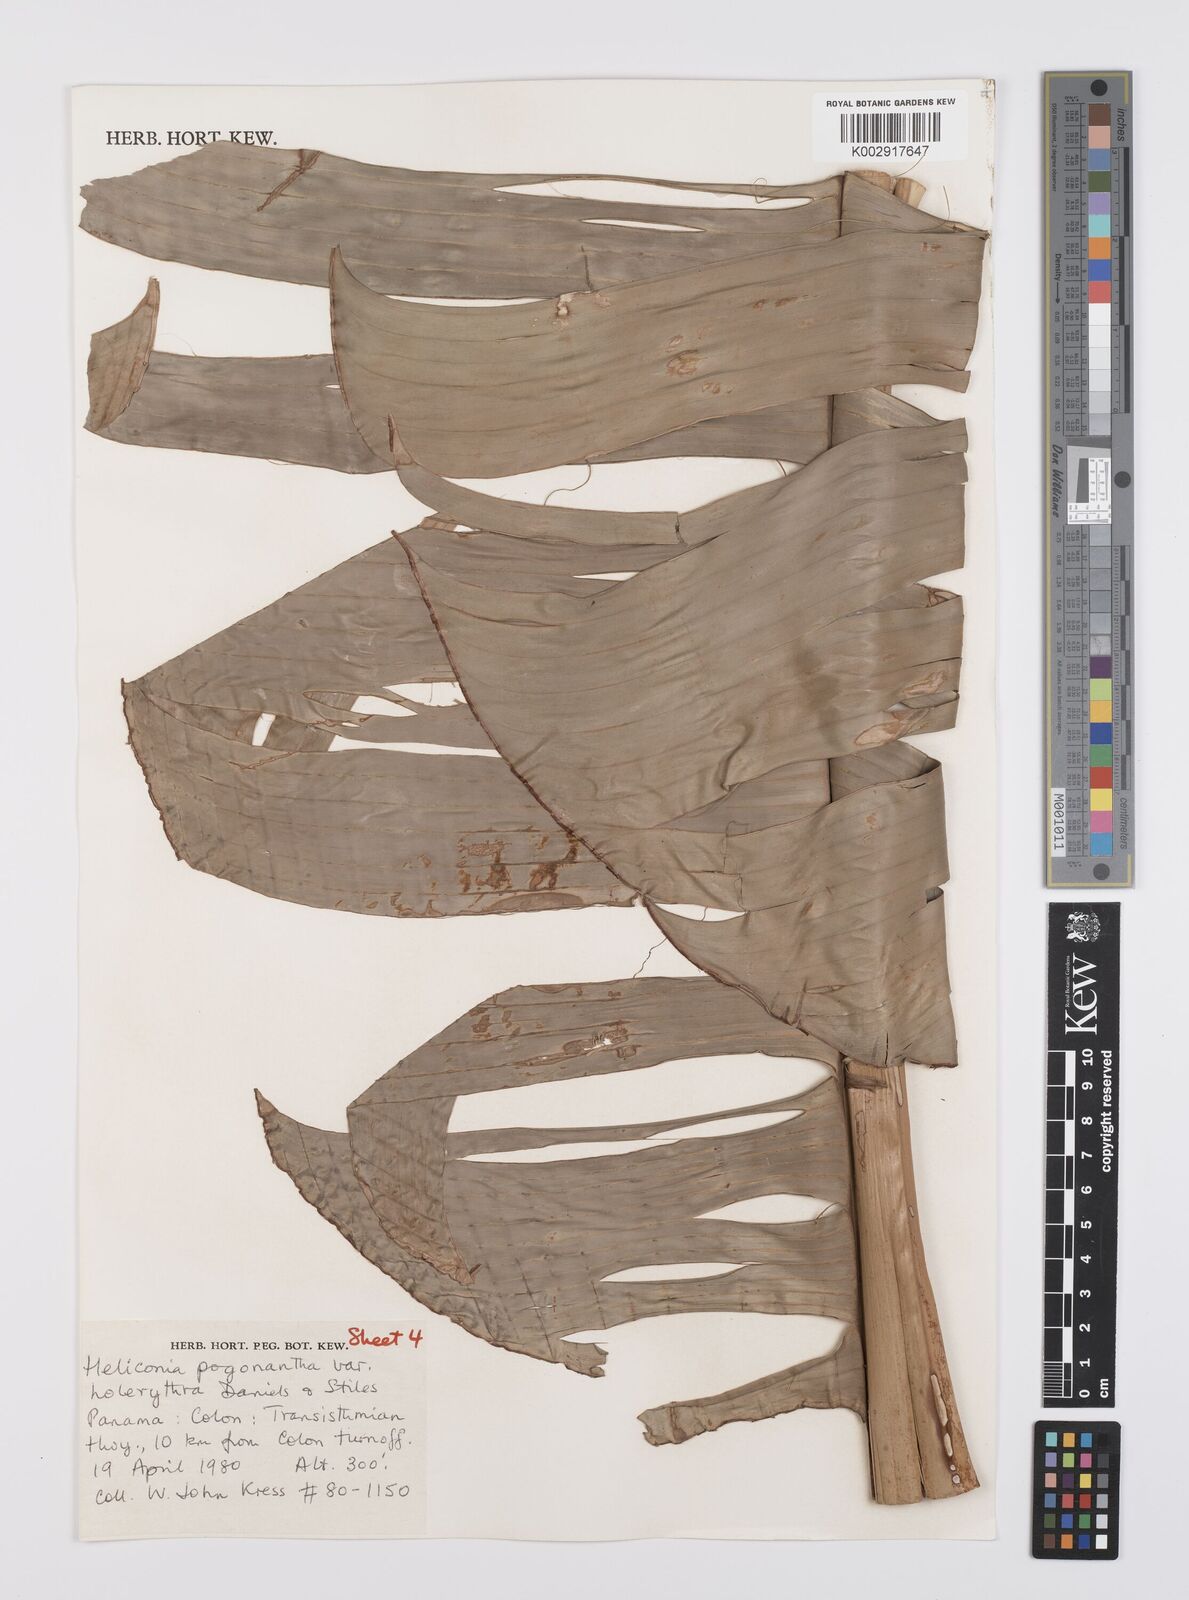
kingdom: Plantae
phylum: Tracheophyta
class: Liliopsida
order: Zingiberales
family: Heliconiaceae
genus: Heliconia
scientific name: Heliconia pogonantha
